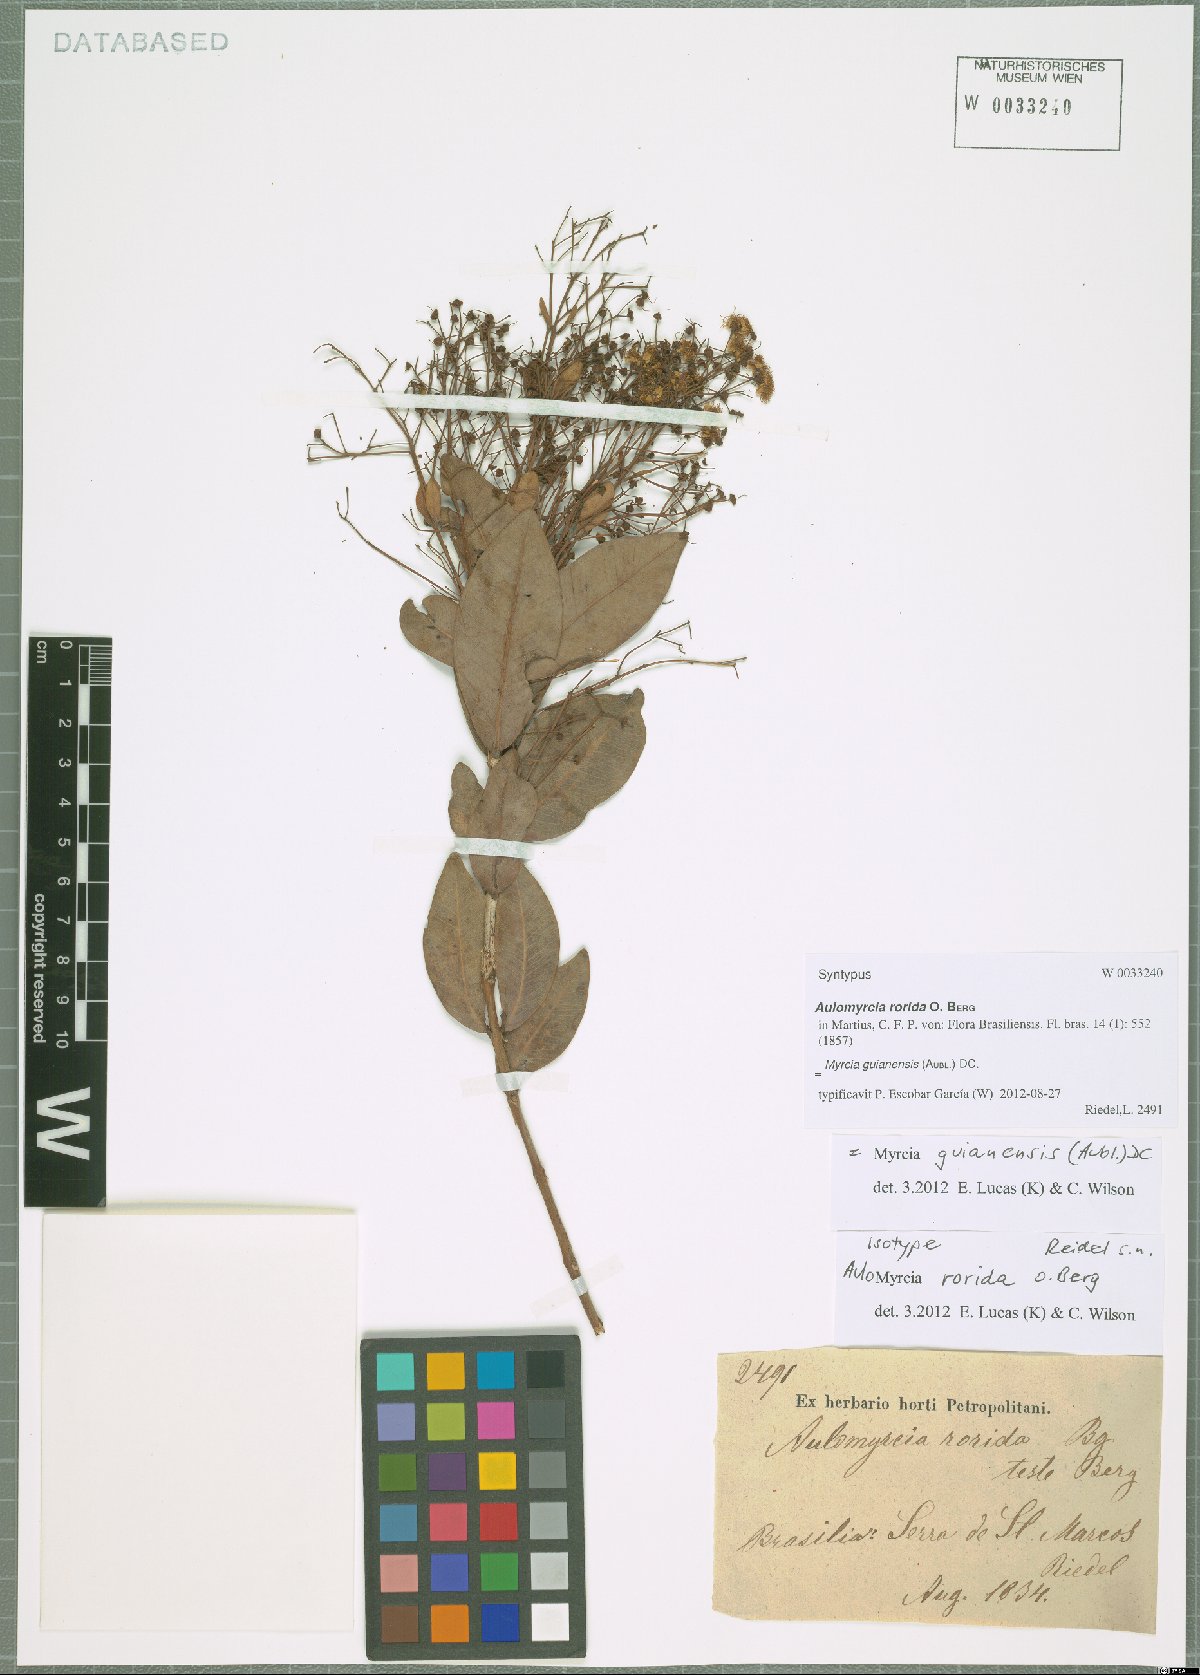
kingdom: Plantae
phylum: Tracheophyta
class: Magnoliopsida
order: Myrtales
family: Myrtaceae
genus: Myrcia
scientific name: Myrcia guianensis
